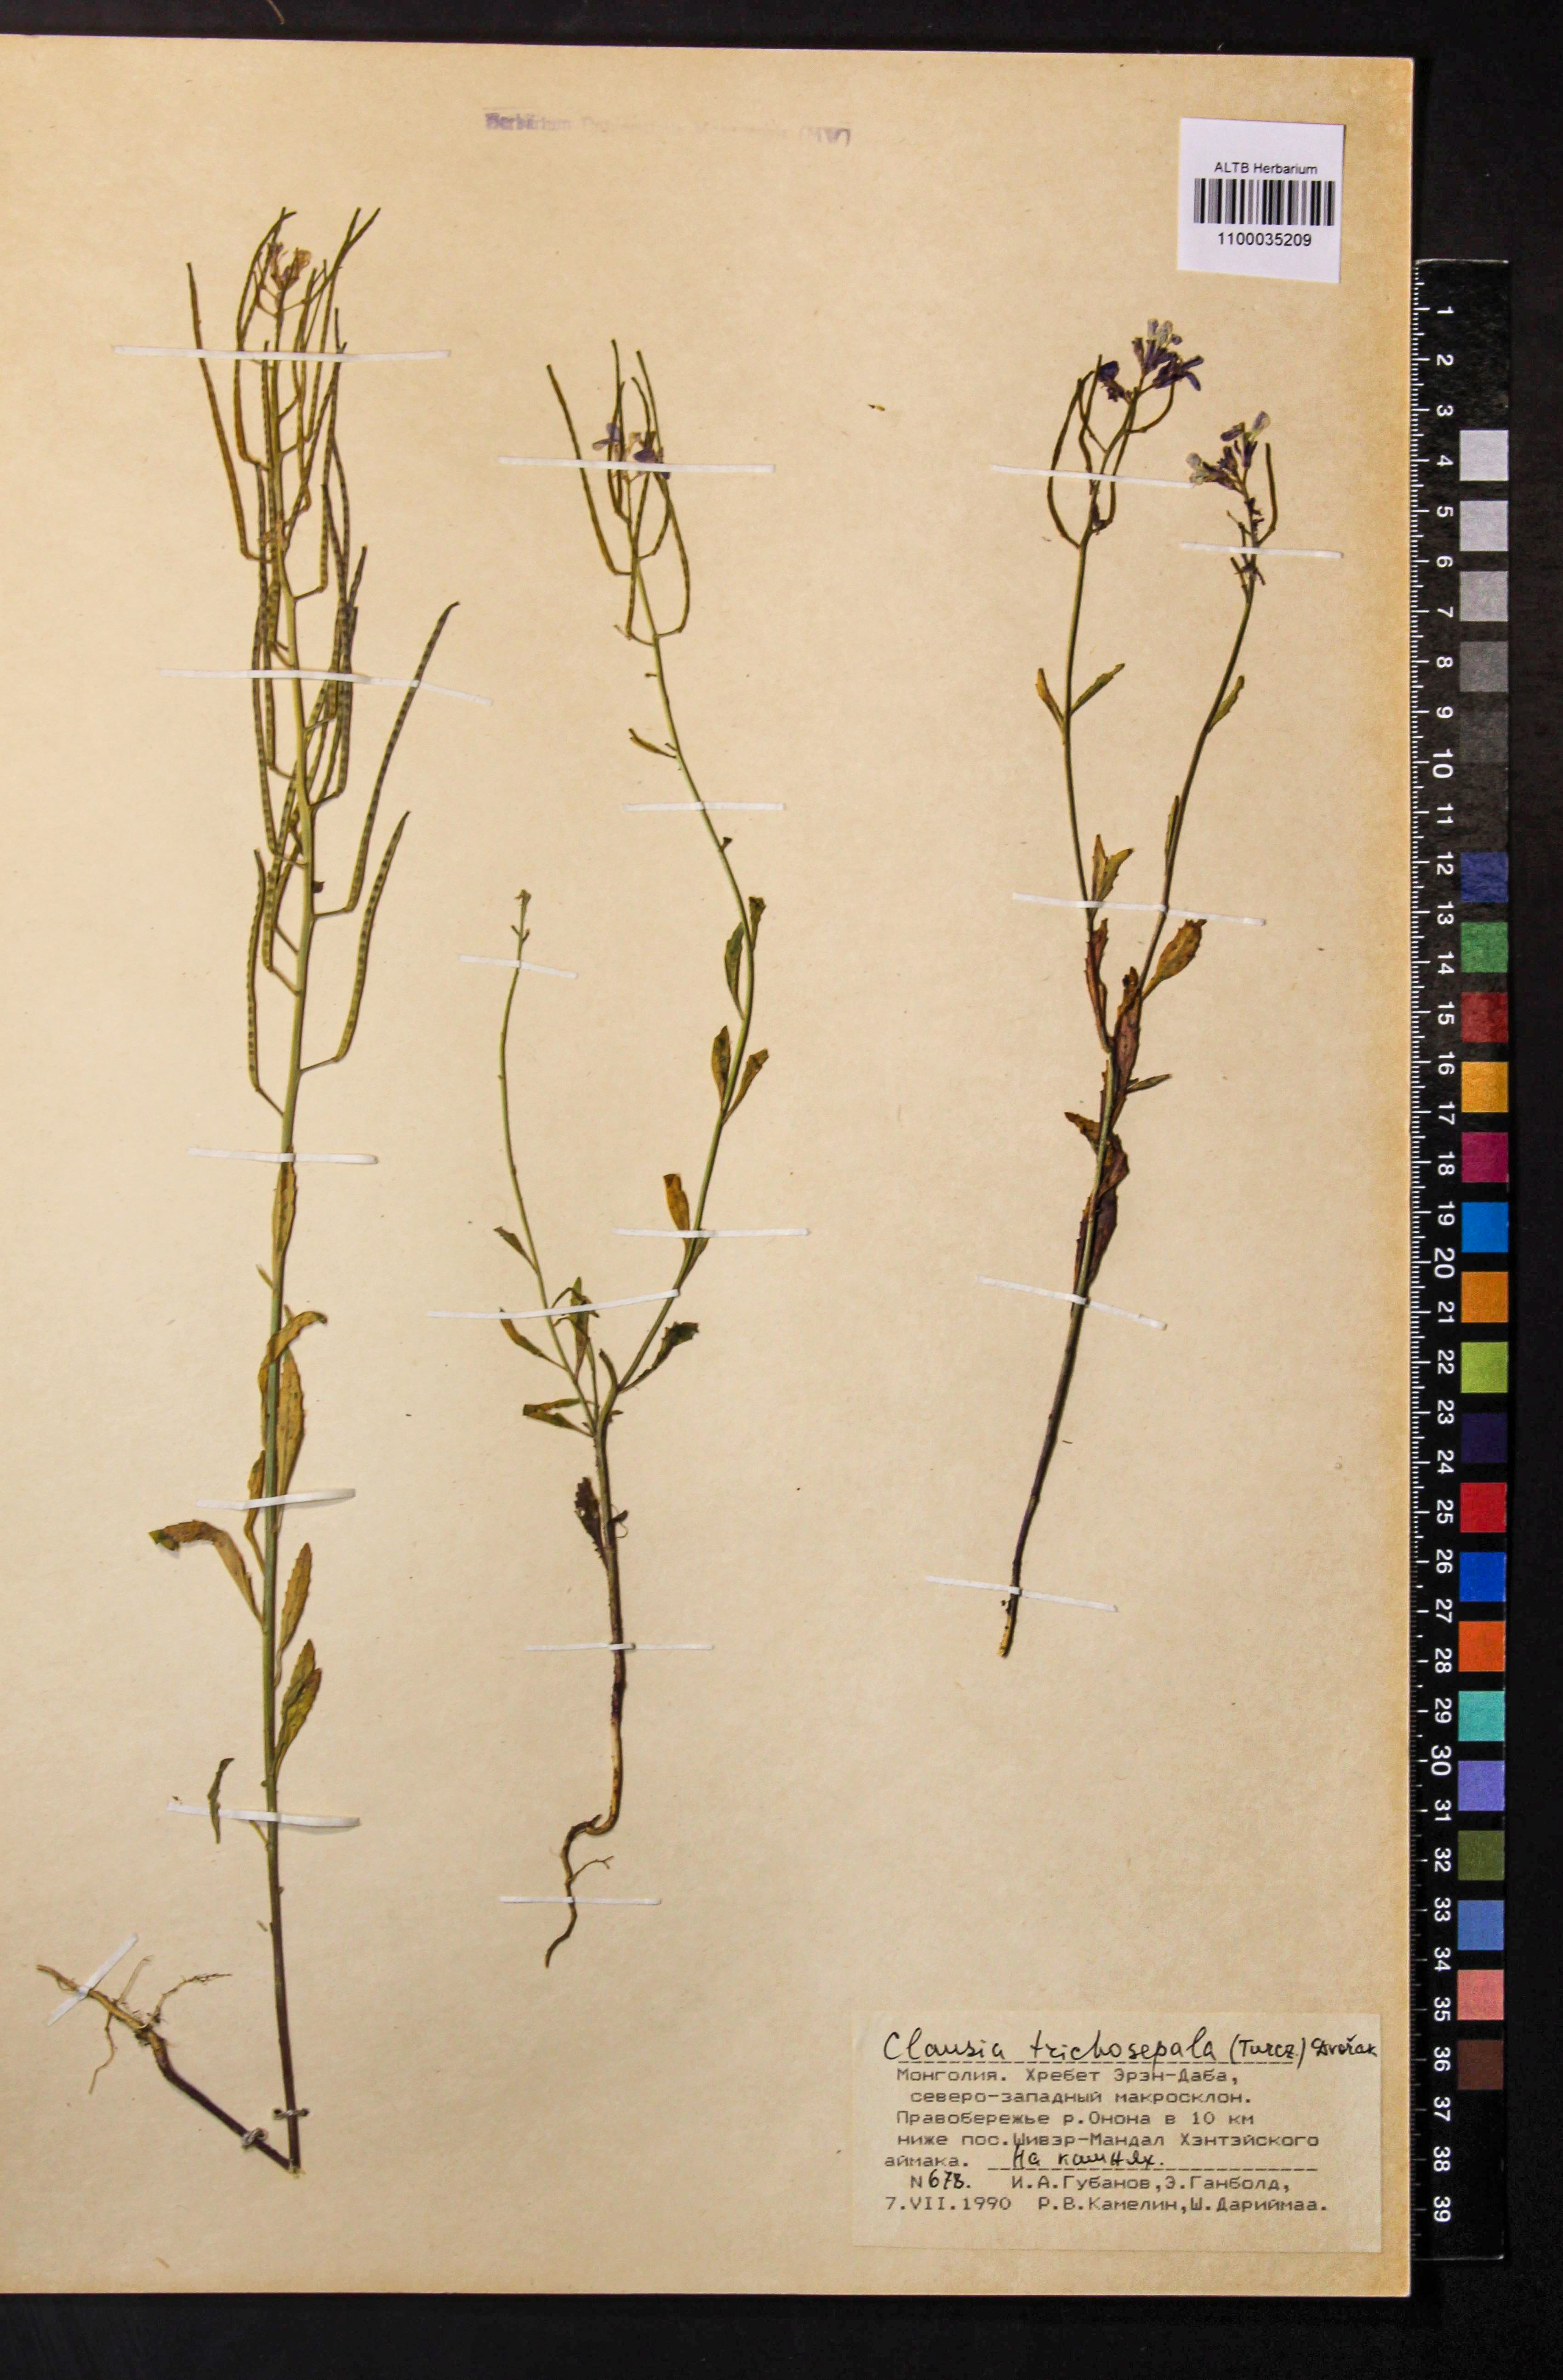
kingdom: Plantae
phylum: Tracheophyta
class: Magnoliopsida
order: Brassicales
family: Brassicaceae
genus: Clausia
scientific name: Clausia trichosepala
